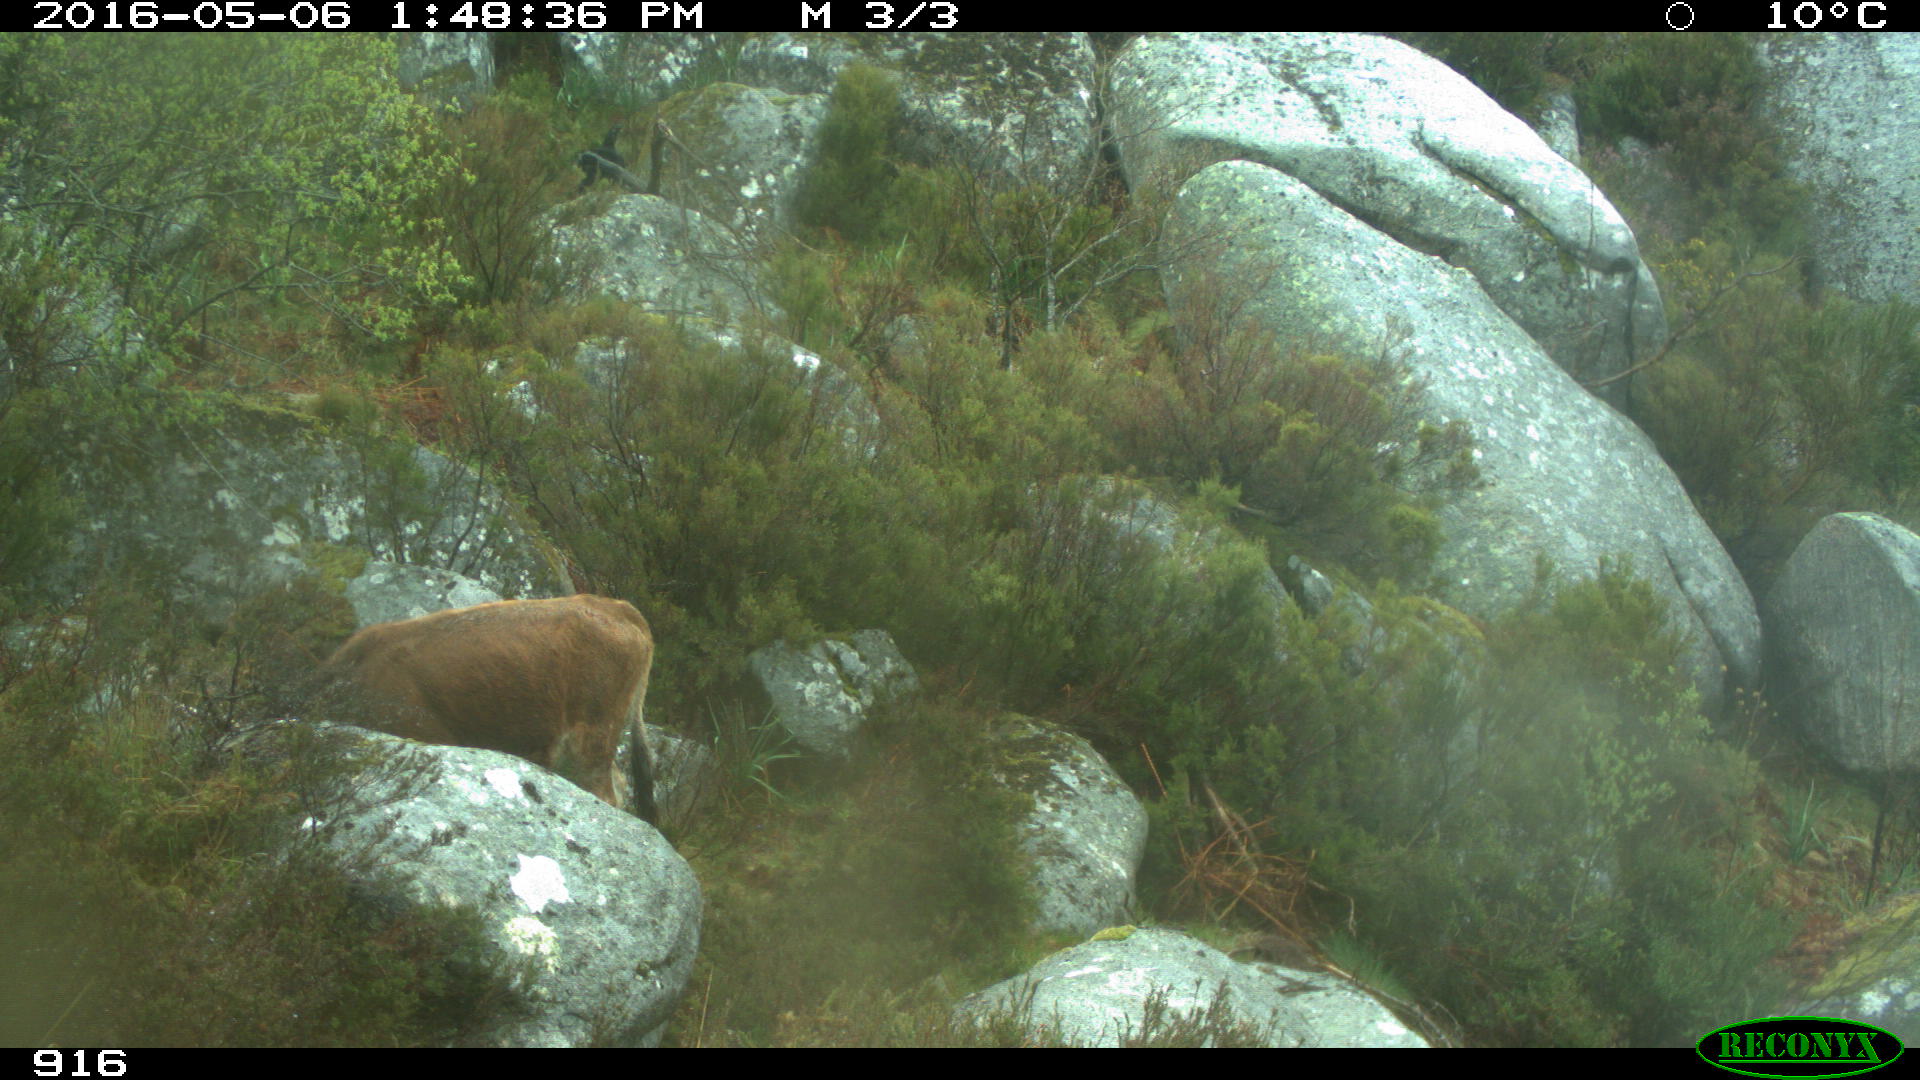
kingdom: Animalia
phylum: Chordata
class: Mammalia
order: Artiodactyla
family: Bovidae
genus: Bos
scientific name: Bos taurus
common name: Domesticated cattle
